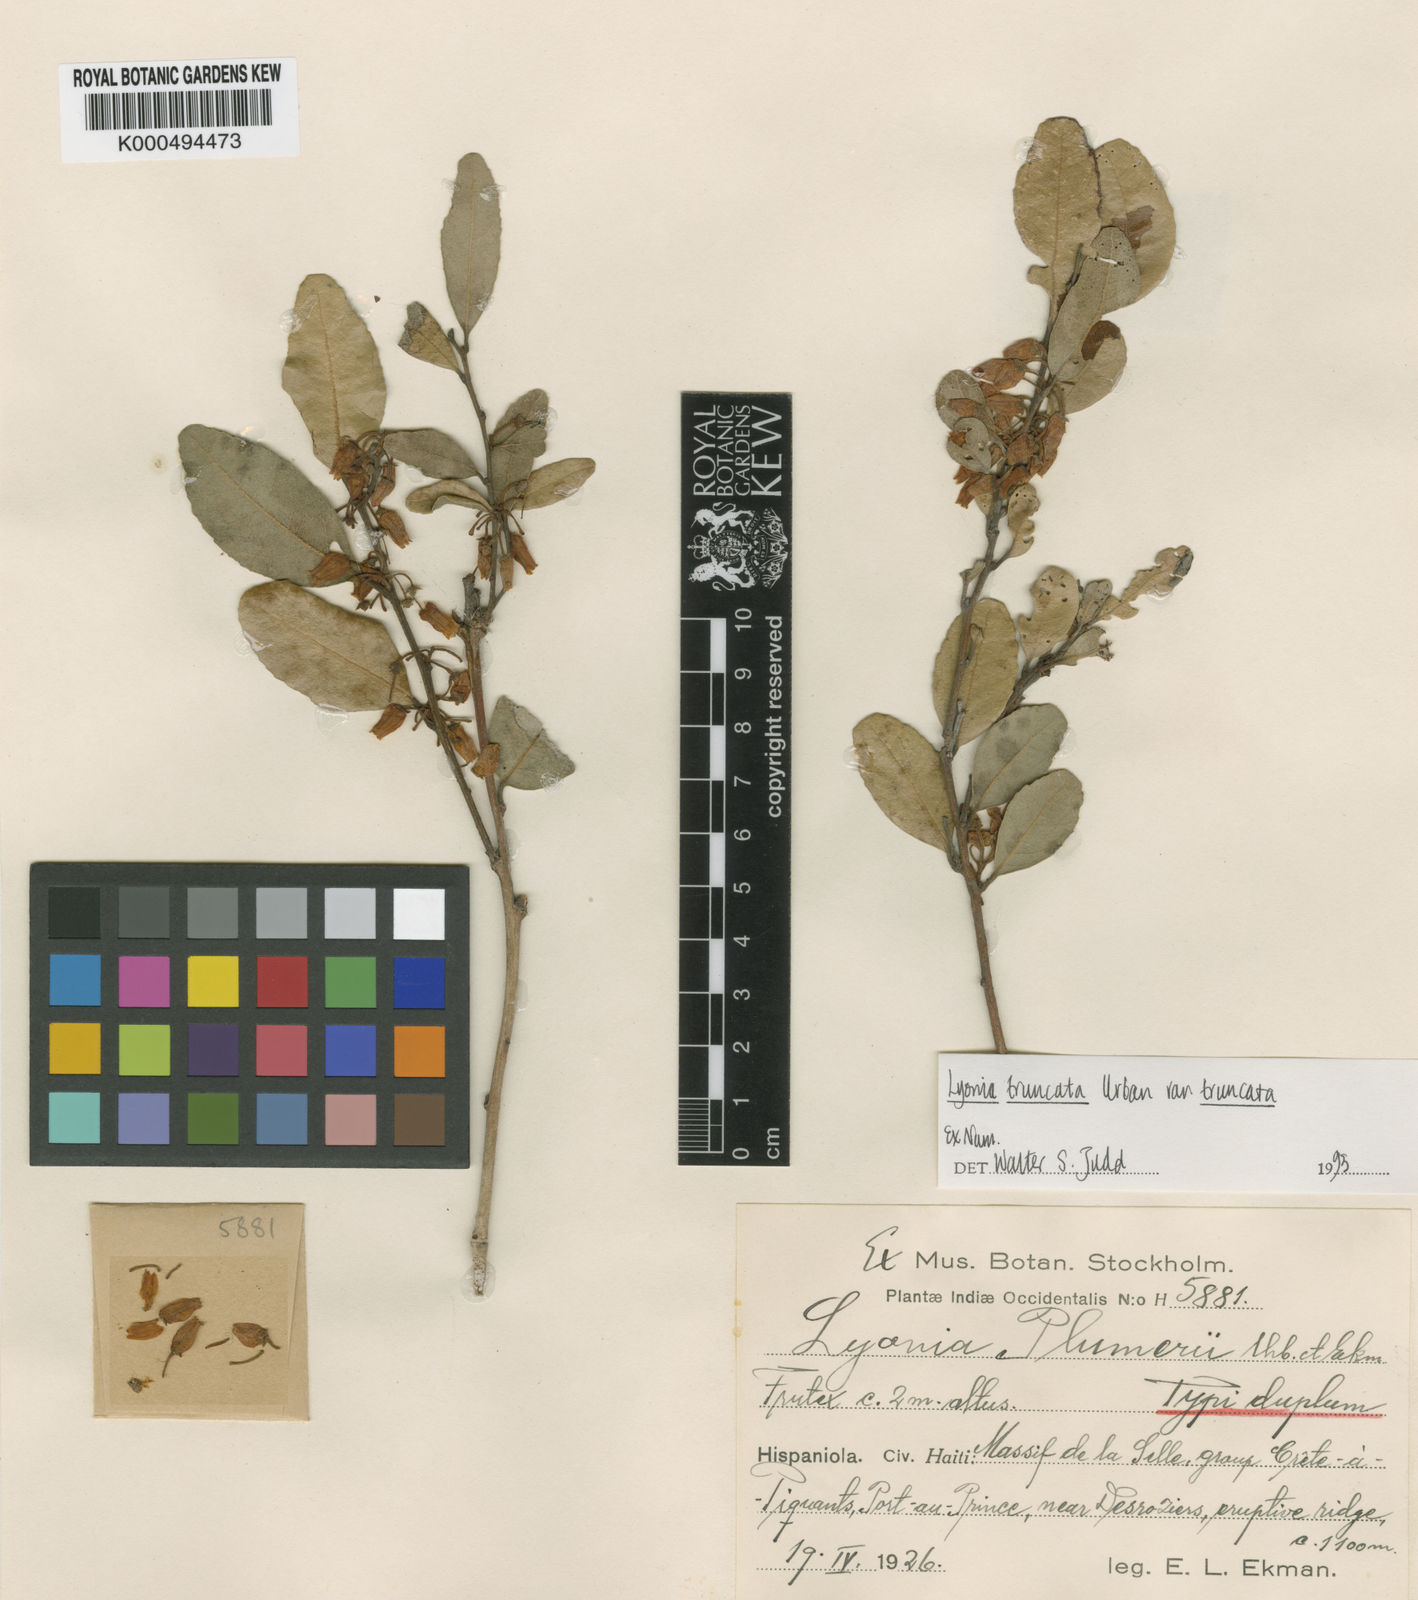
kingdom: Plantae
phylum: Tracheophyta
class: Magnoliopsida
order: Ericales
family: Ericaceae
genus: Lyonia
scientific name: Lyonia truncata
